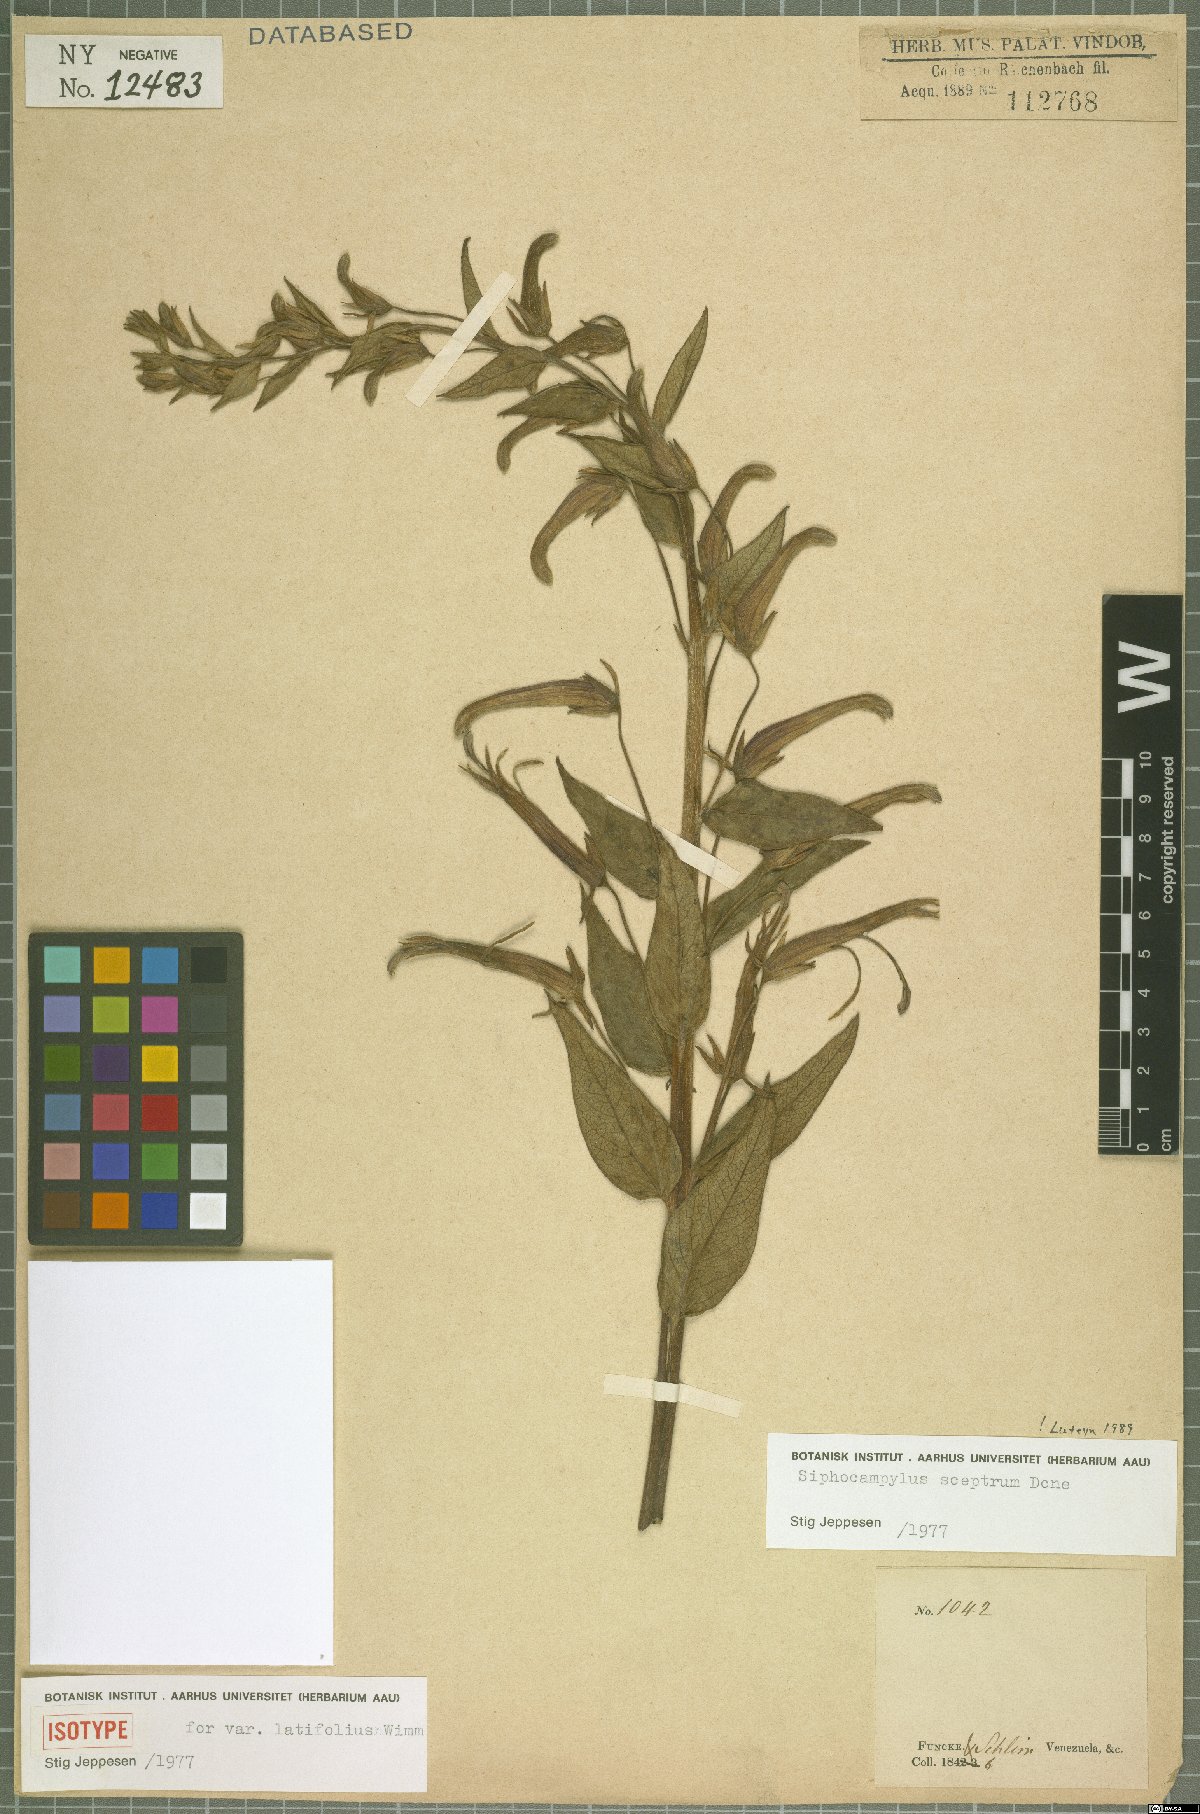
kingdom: Plantae
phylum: Tracheophyta
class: Magnoliopsida
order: Asterales
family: Campanulaceae
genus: Siphocampylus
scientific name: Siphocampylus sceptrum
